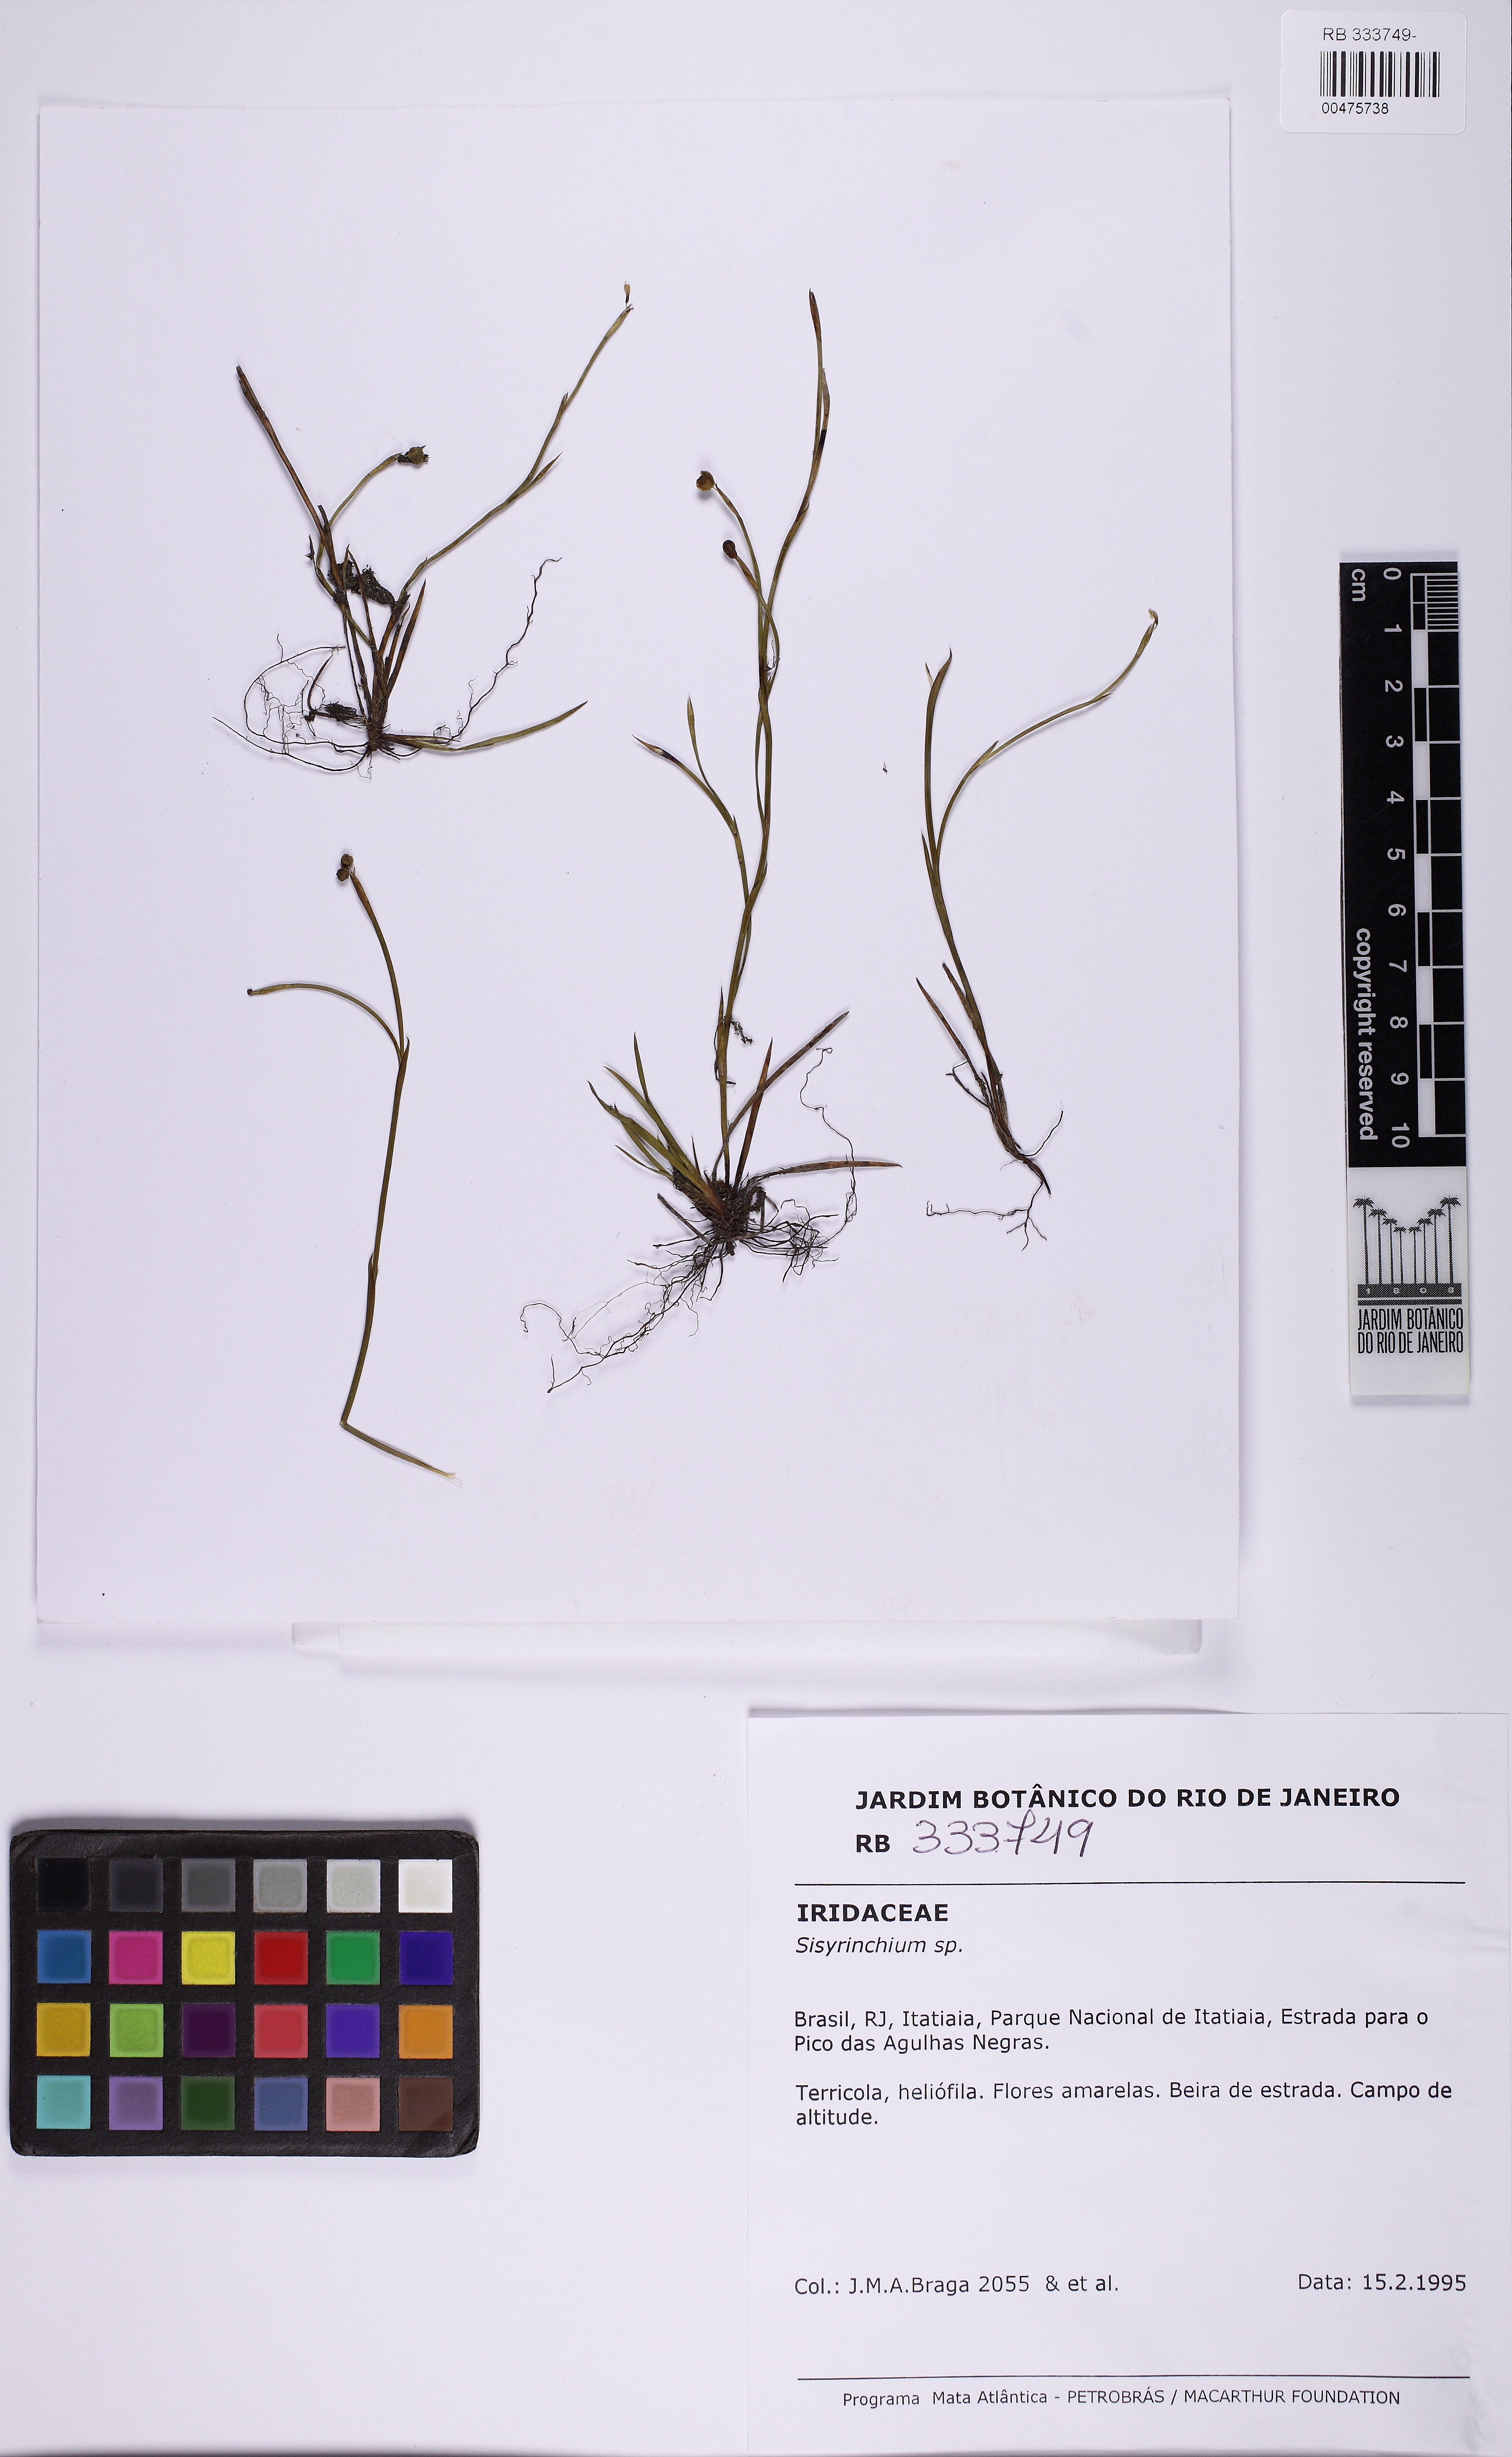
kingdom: Plantae
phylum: Tracheophyta
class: Liliopsida
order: Asparagales
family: Iridaceae
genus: Sisyrinchium
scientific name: Sisyrinchium
